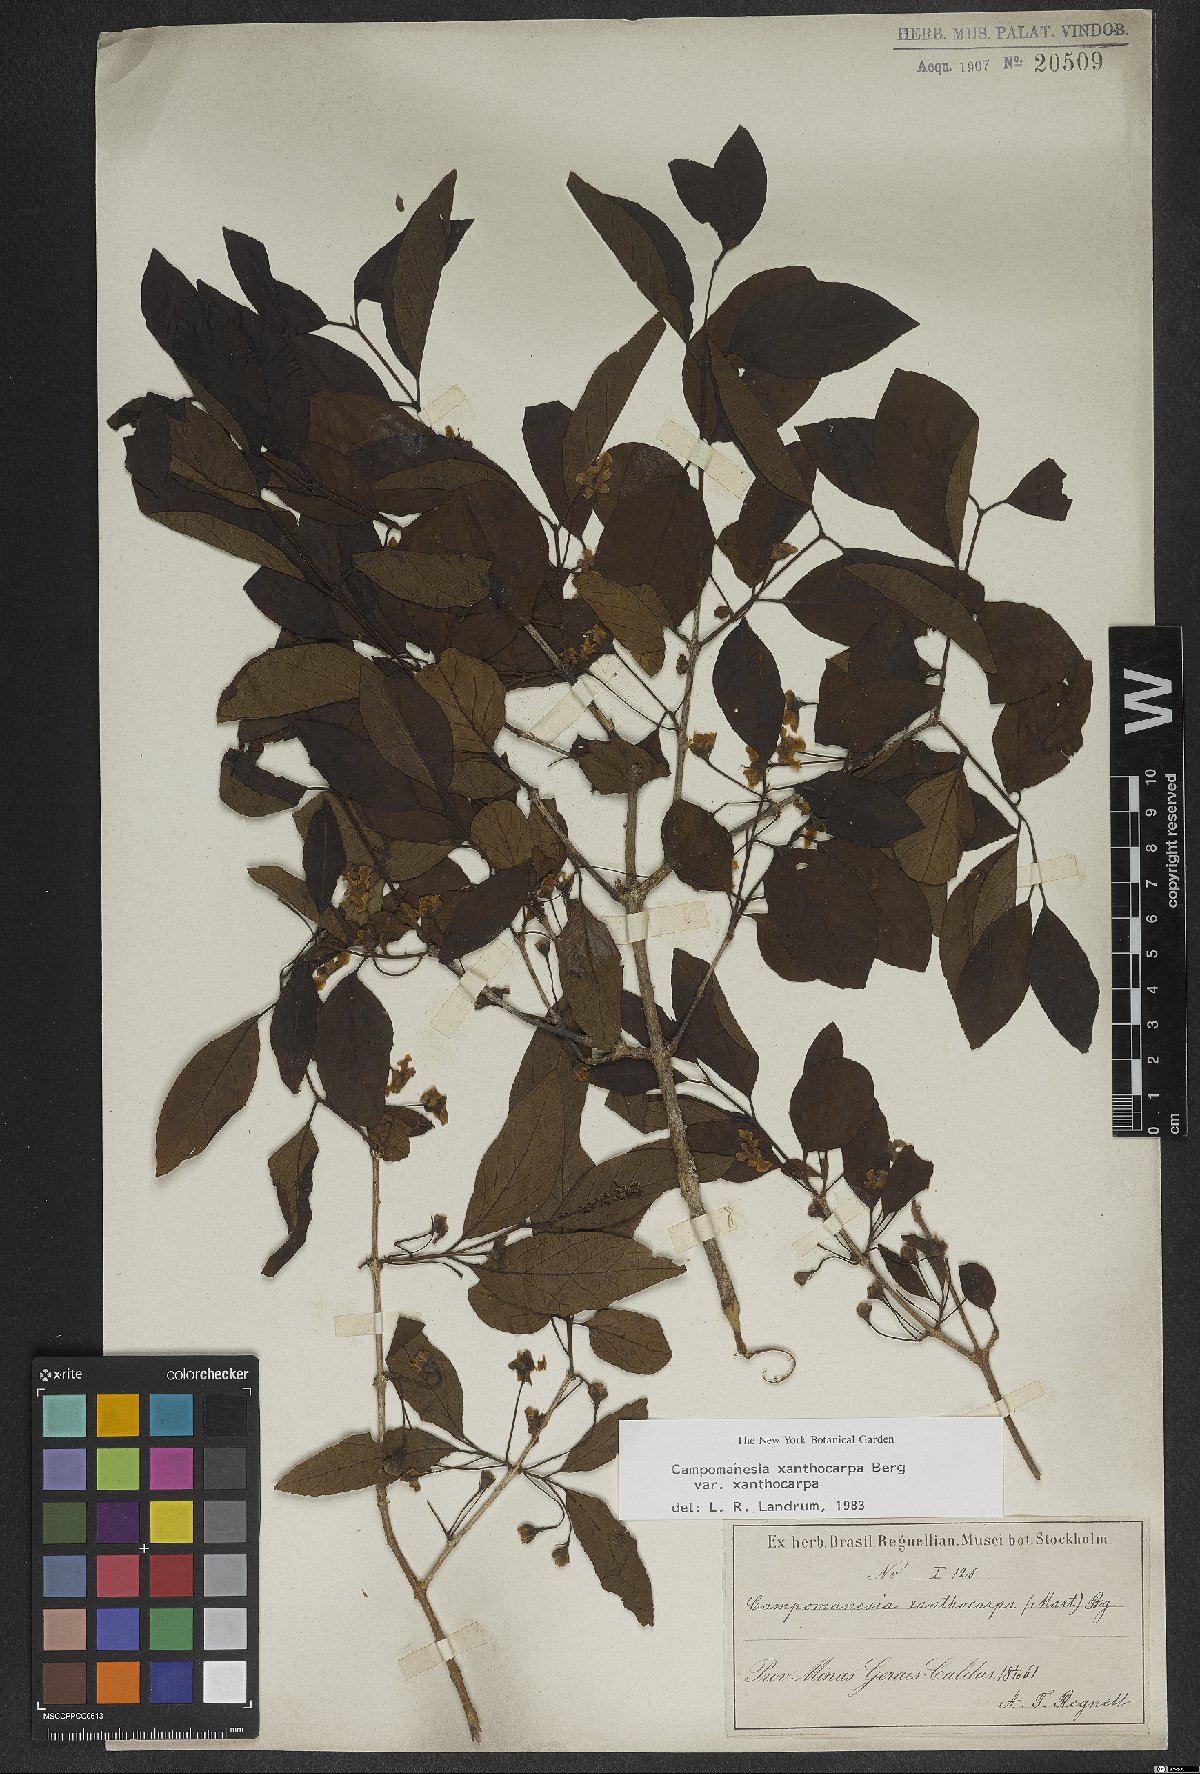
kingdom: Plantae
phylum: Tracheophyta
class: Magnoliopsida
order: Myrtales
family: Myrtaceae
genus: Campomanesia
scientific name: Campomanesia xanthocarpa
